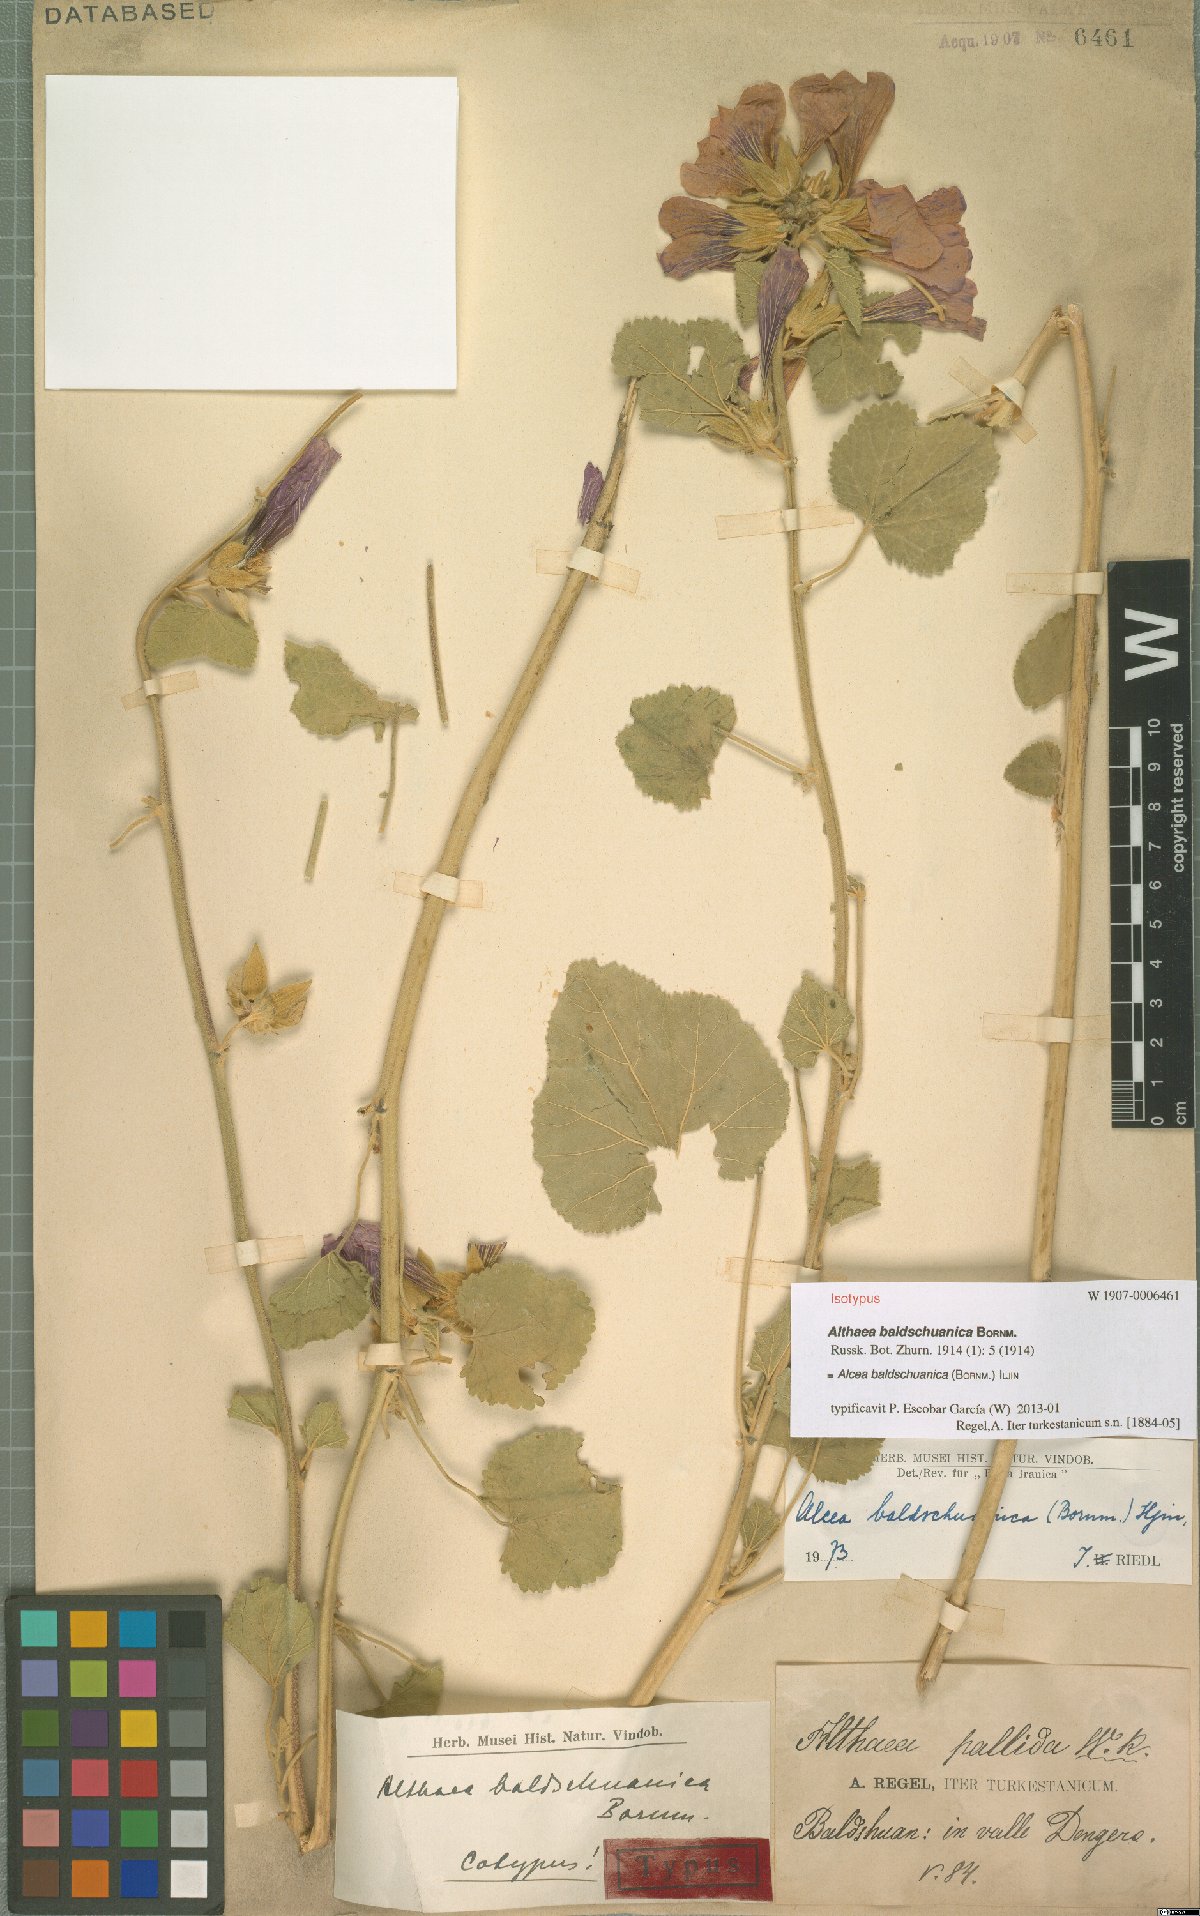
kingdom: Plantae
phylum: Tracheophyta
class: Magnoliopsida
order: Malvales
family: Malvaceae
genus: Alcea
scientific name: Alcea baldshuanica
